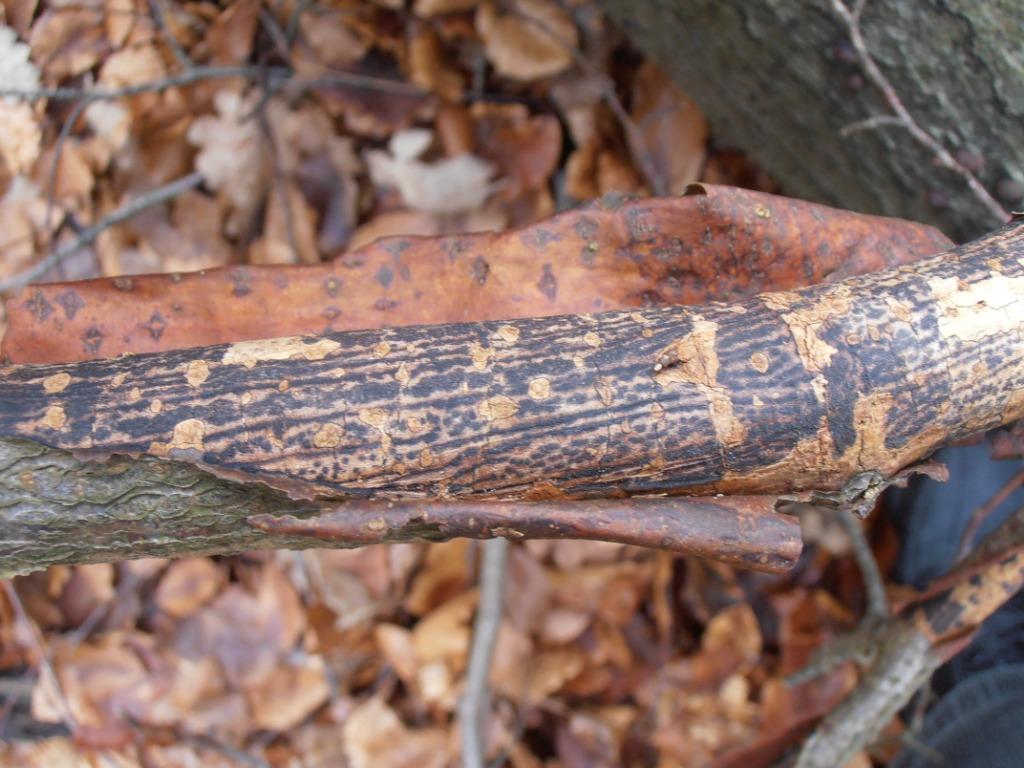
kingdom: Fungi
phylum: Ascomycota
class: Sordariomycetes
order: Xylariales
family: Diatrypaceae
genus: Diatrype
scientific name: Diatrype decorticata
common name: barksprænger-kulskorpe
